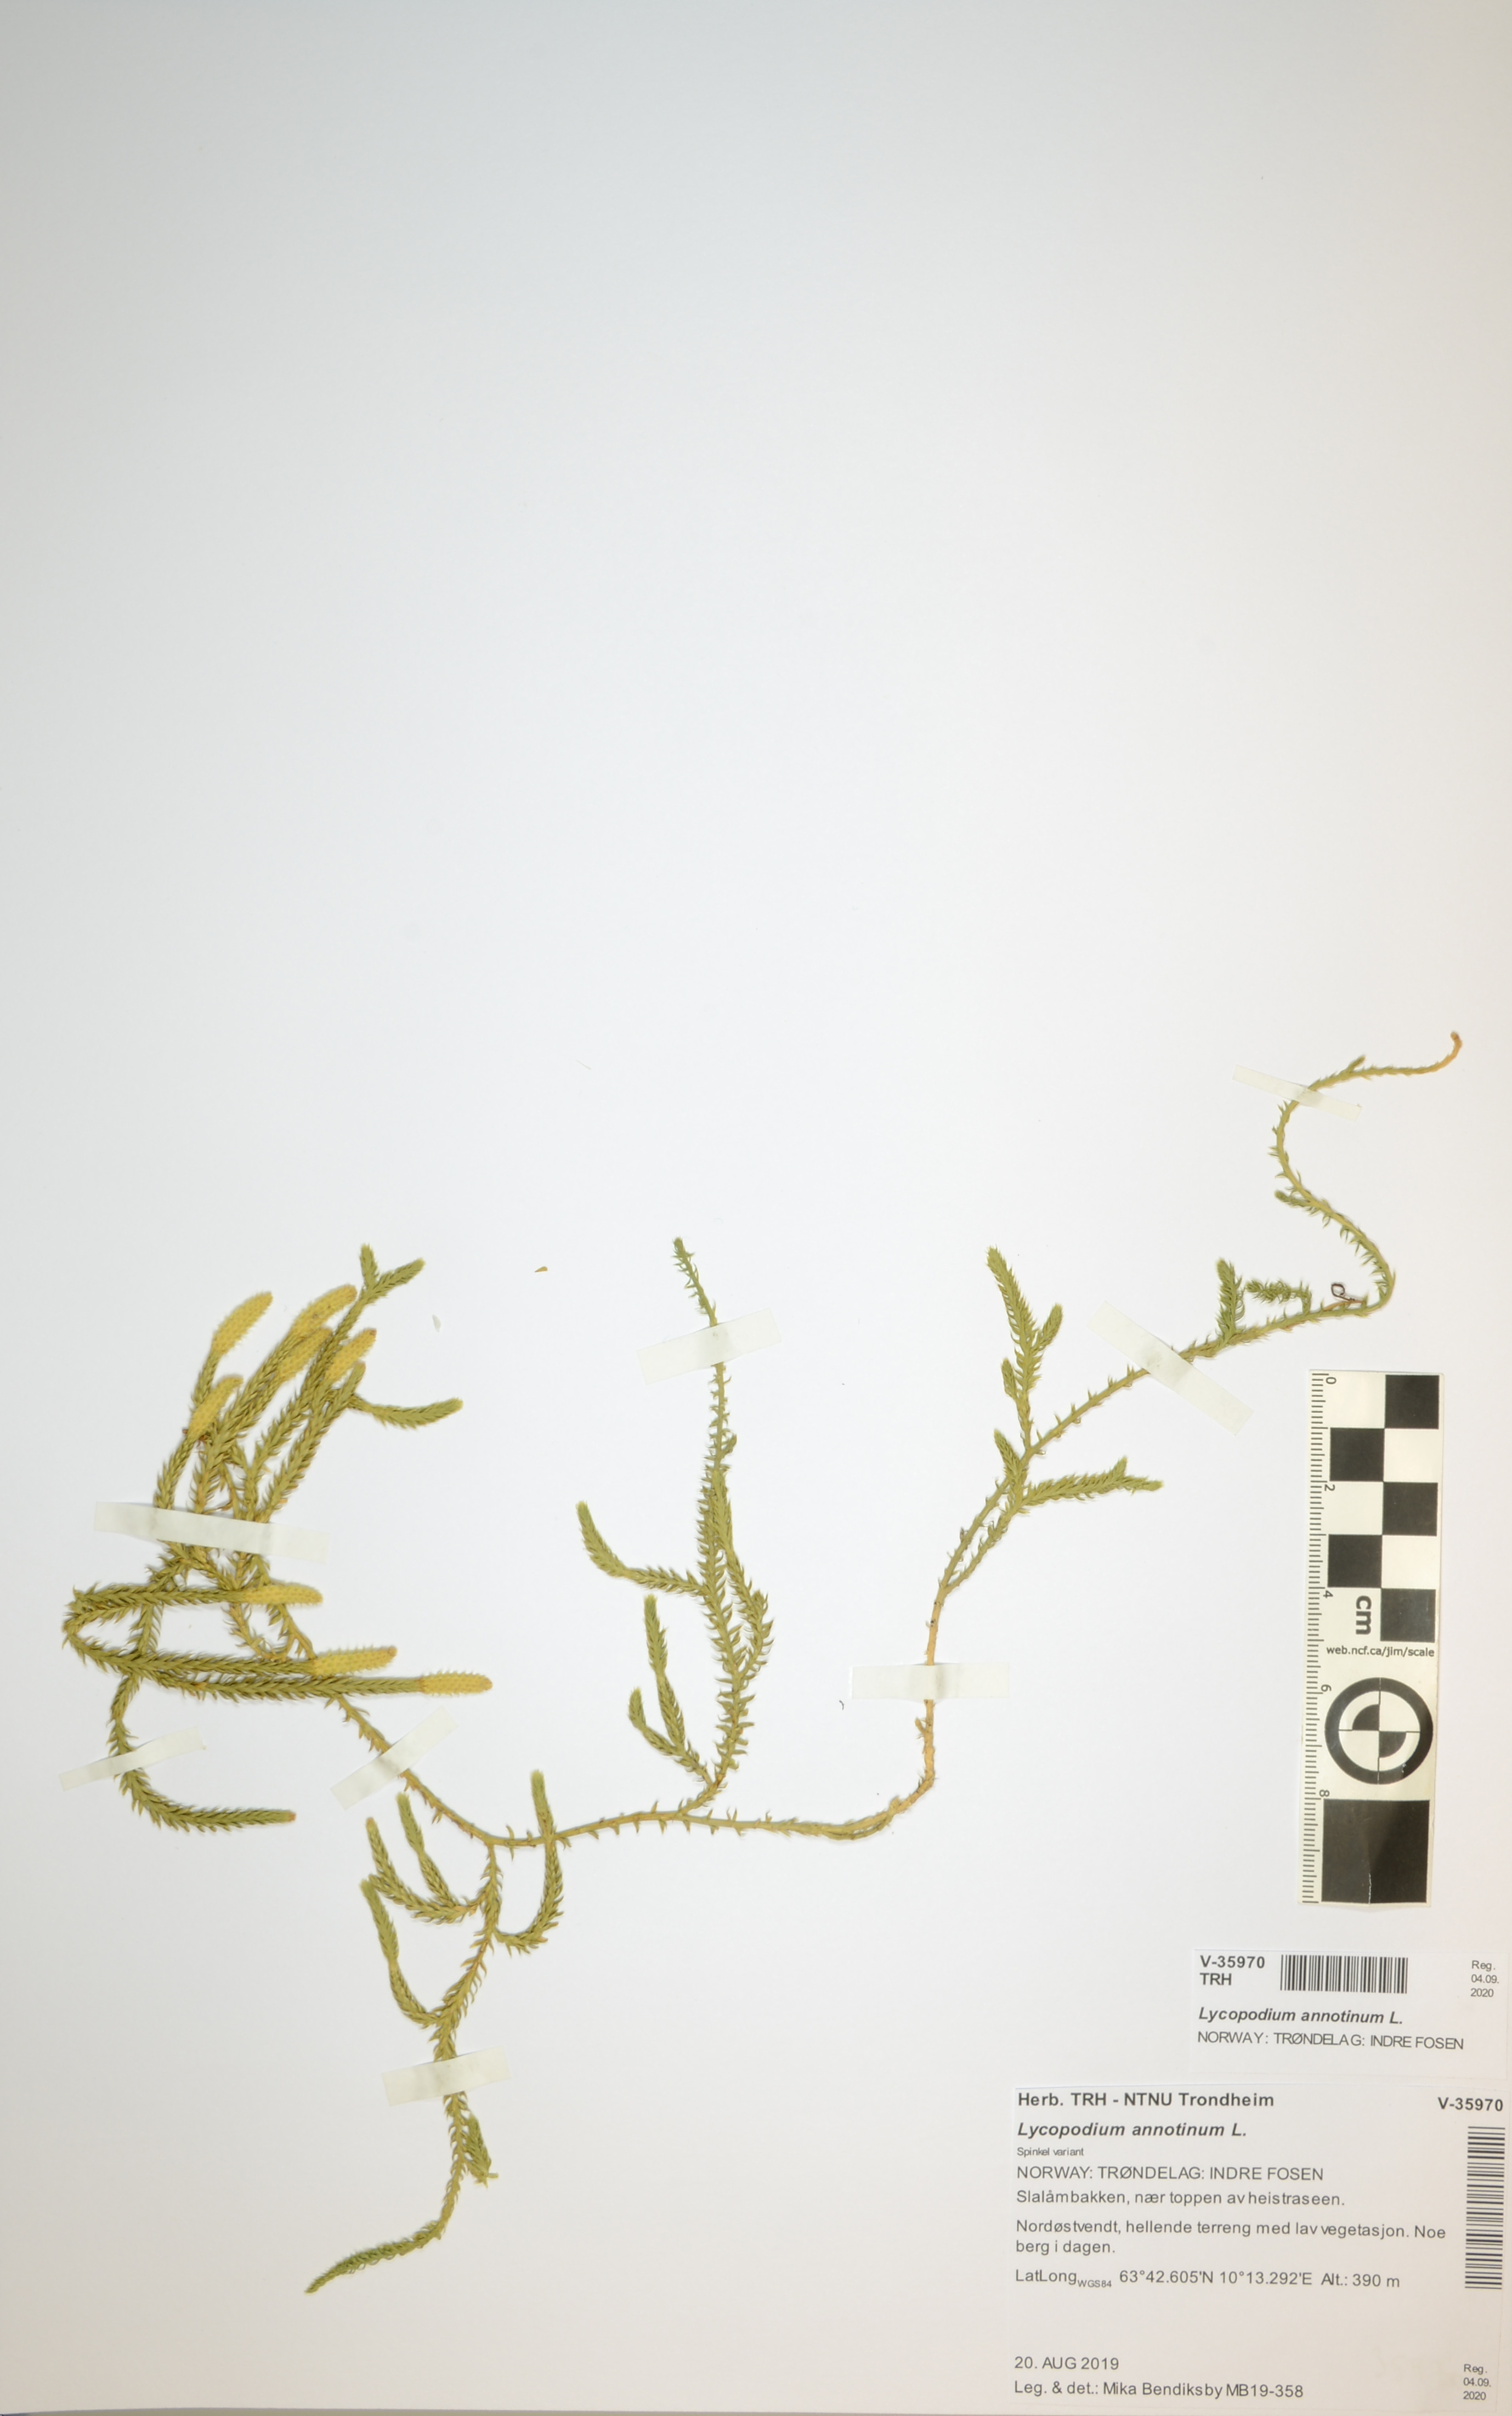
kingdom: Plantae
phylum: Tracheophyta
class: Lycopodiopsida
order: Lycopodiales
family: Lycopodiaceae
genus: Spinulum
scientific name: Spinulum annotinum
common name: Interrupted club-moss
